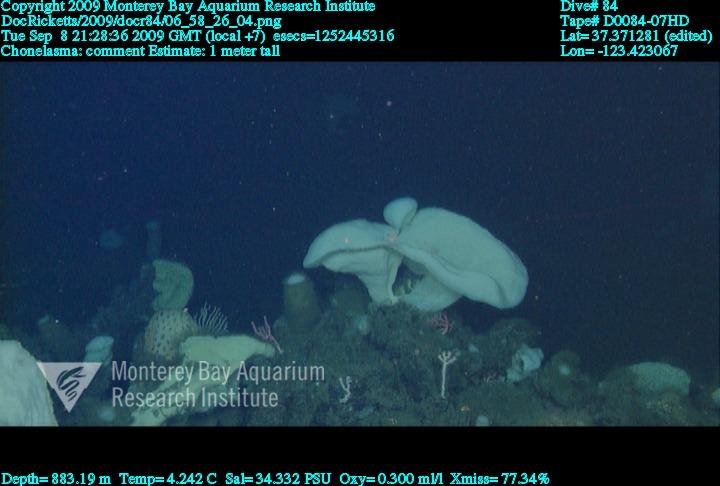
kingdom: Animalia
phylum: Porifera
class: Hexactinellida
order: Sceptrulophora
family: Euretidae
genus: Chonelasma
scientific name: Chonelasma
